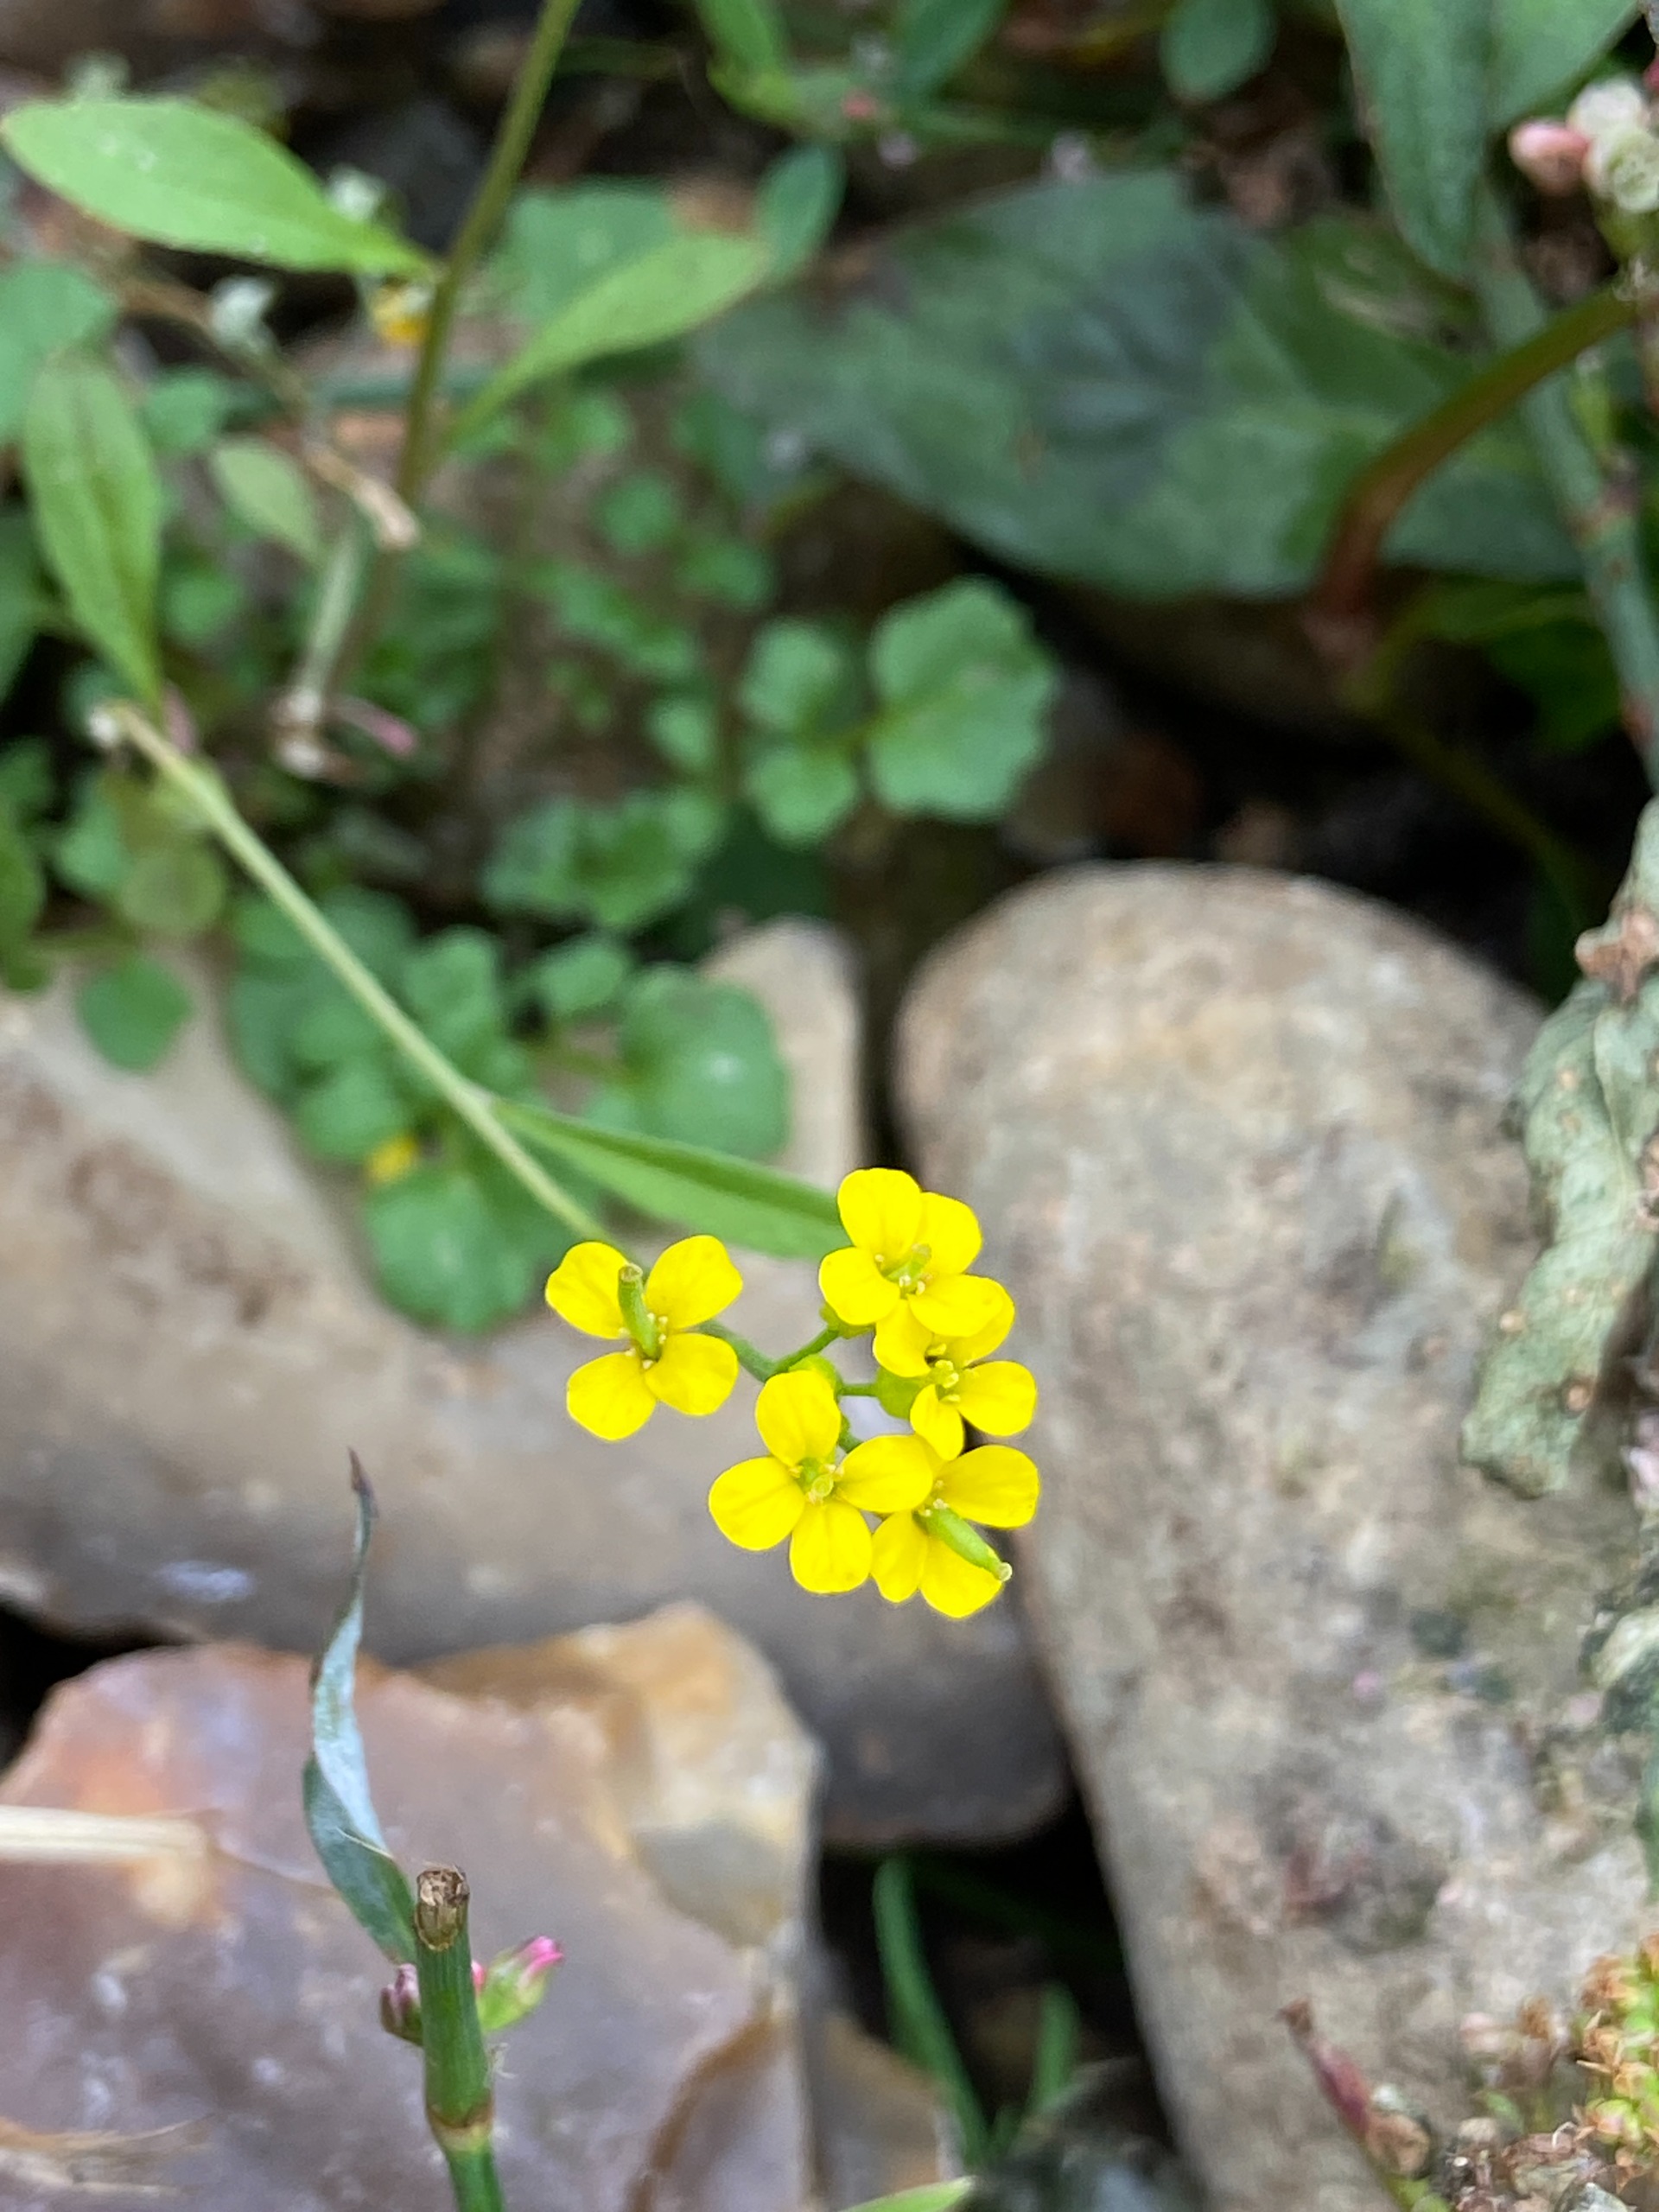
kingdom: Plantae
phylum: Tracheophyta
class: Magnoliopsida
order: Brassicales
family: Brassicaceae
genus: Erysimum
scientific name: Erysimum cheiranthoides
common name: Gyldenlak-hjørneklap
